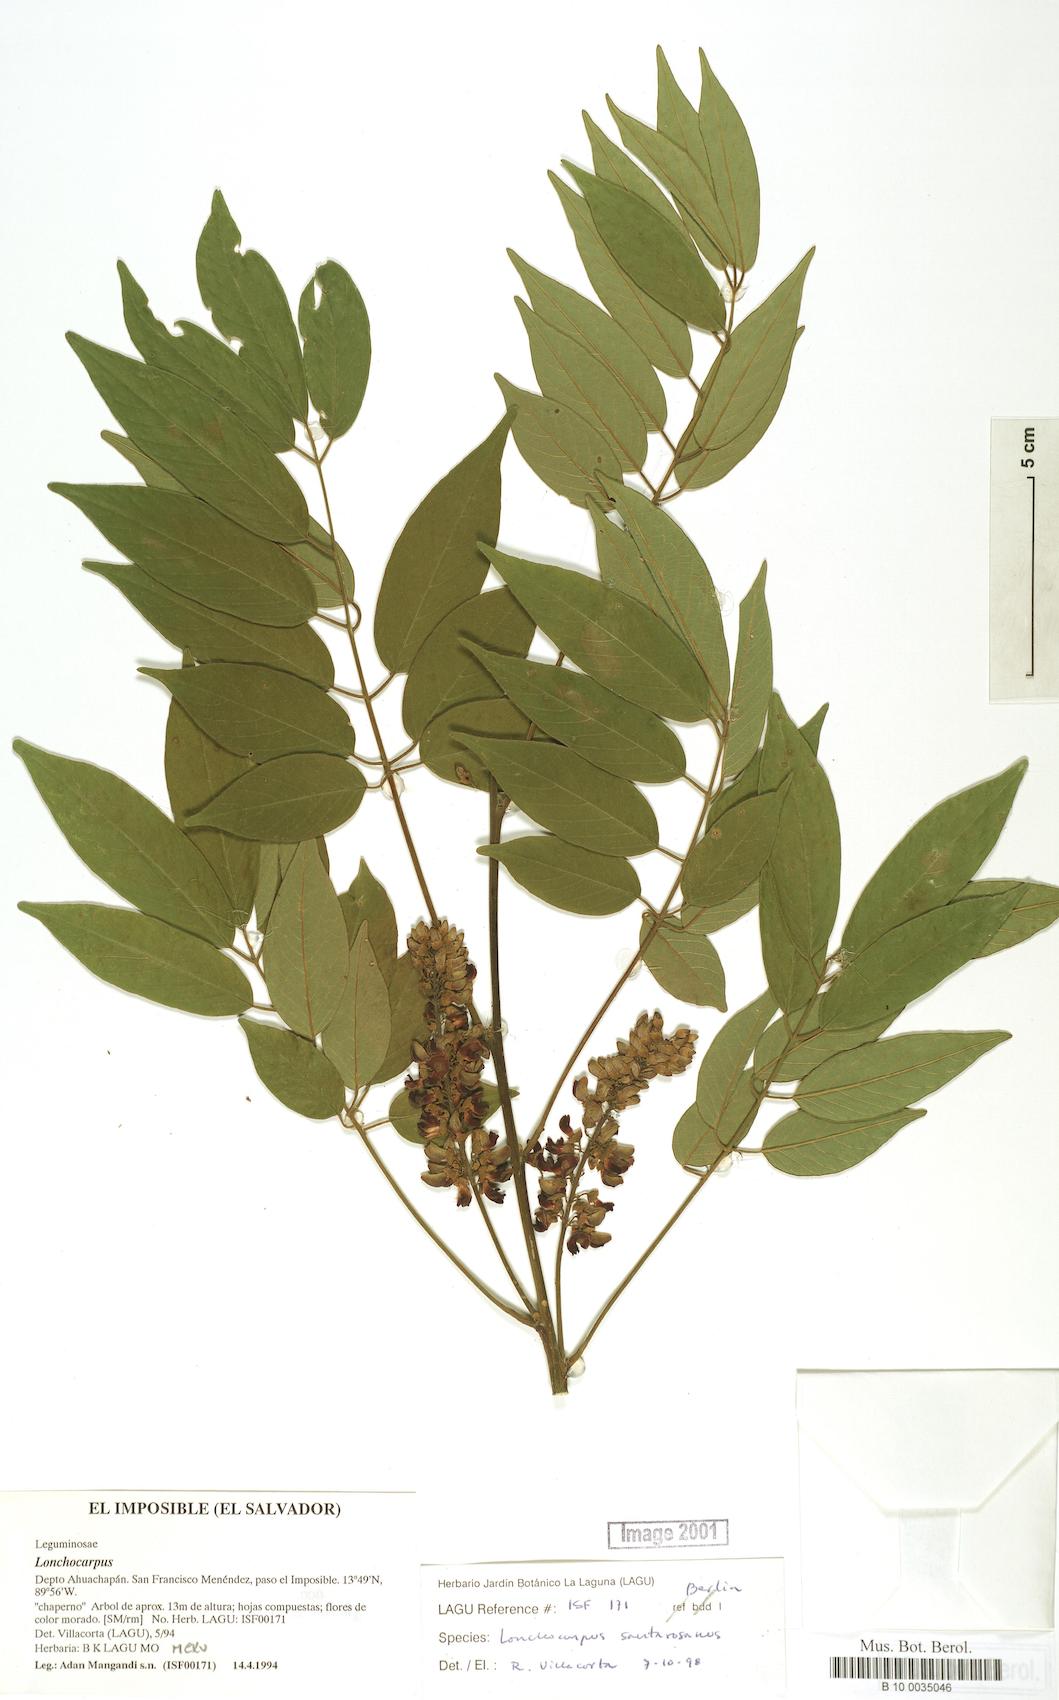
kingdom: Plantae
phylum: Tracheophyta
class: Magnoliopsida
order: Fabales
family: Fabaceae
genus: Lonchocarpus
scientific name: Lonchocarpus purpureus
